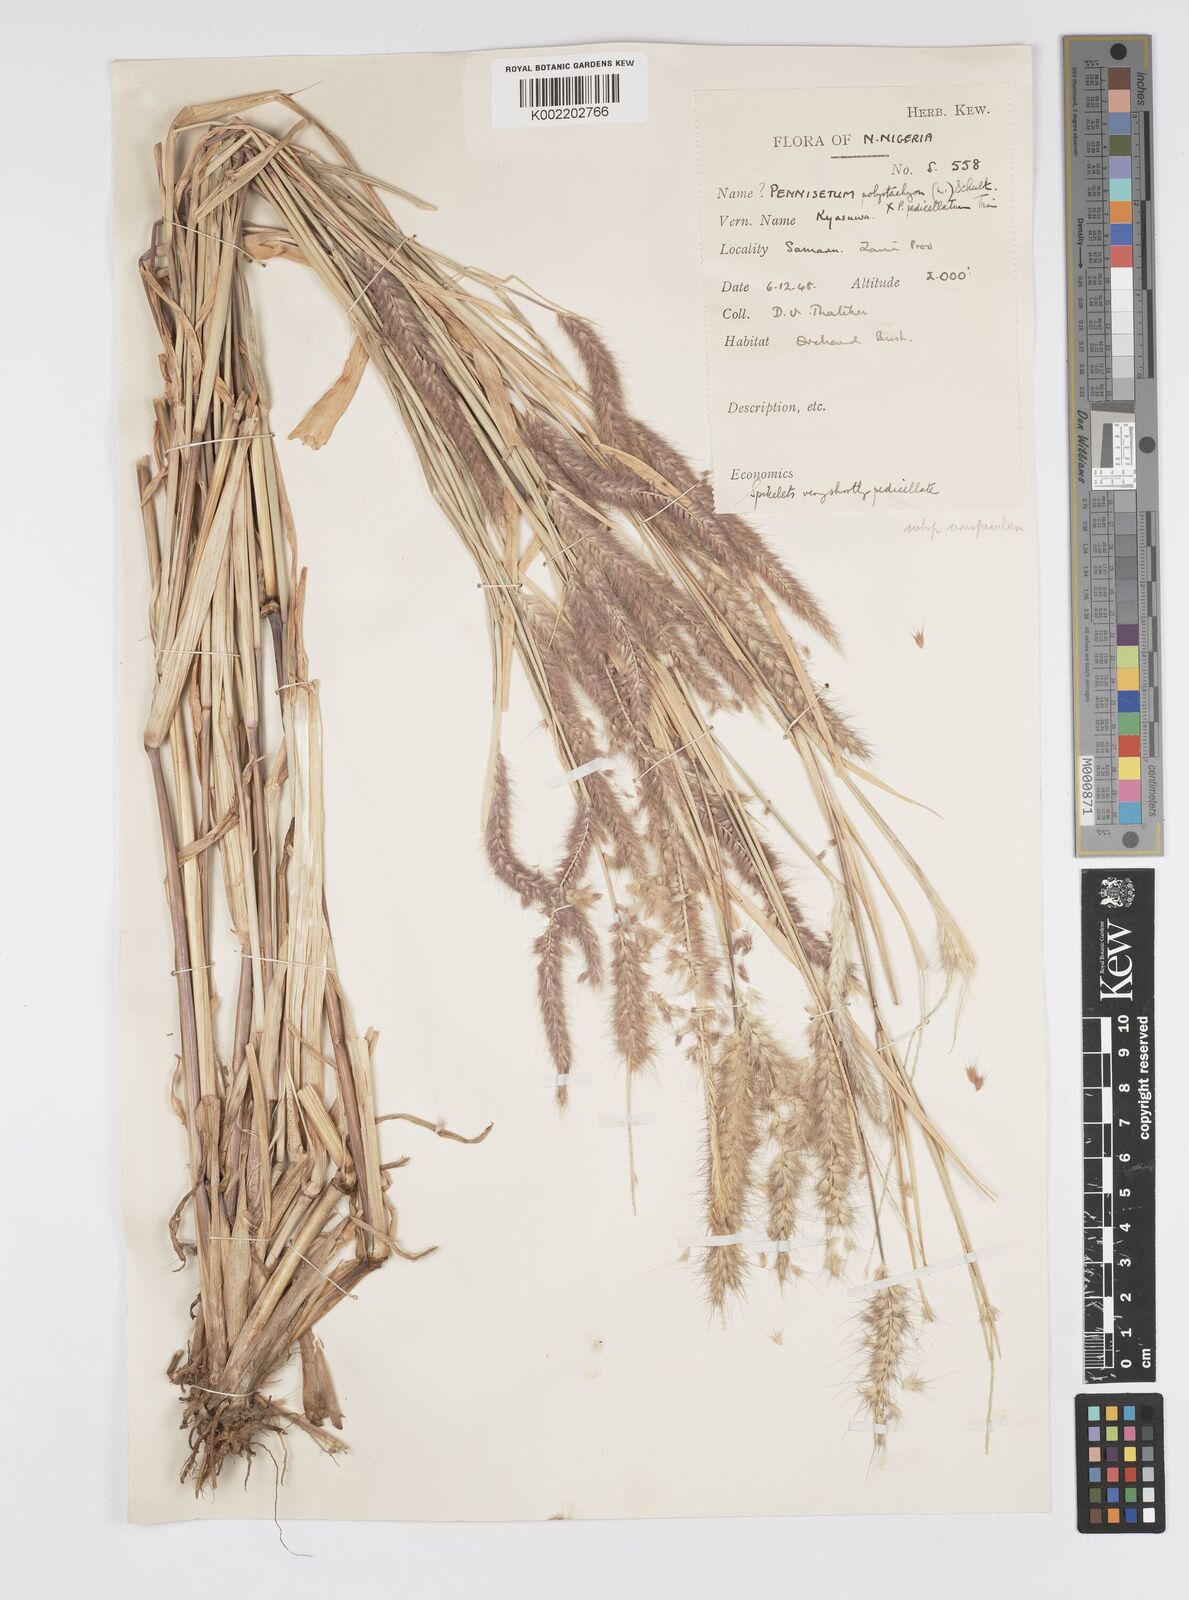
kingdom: Plantae
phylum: Tracheophyta
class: Liliopsida
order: Poales
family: Poaceae
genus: Cenchrus
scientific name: Cenchrus pedicellatus
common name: Hairy fountain grass
